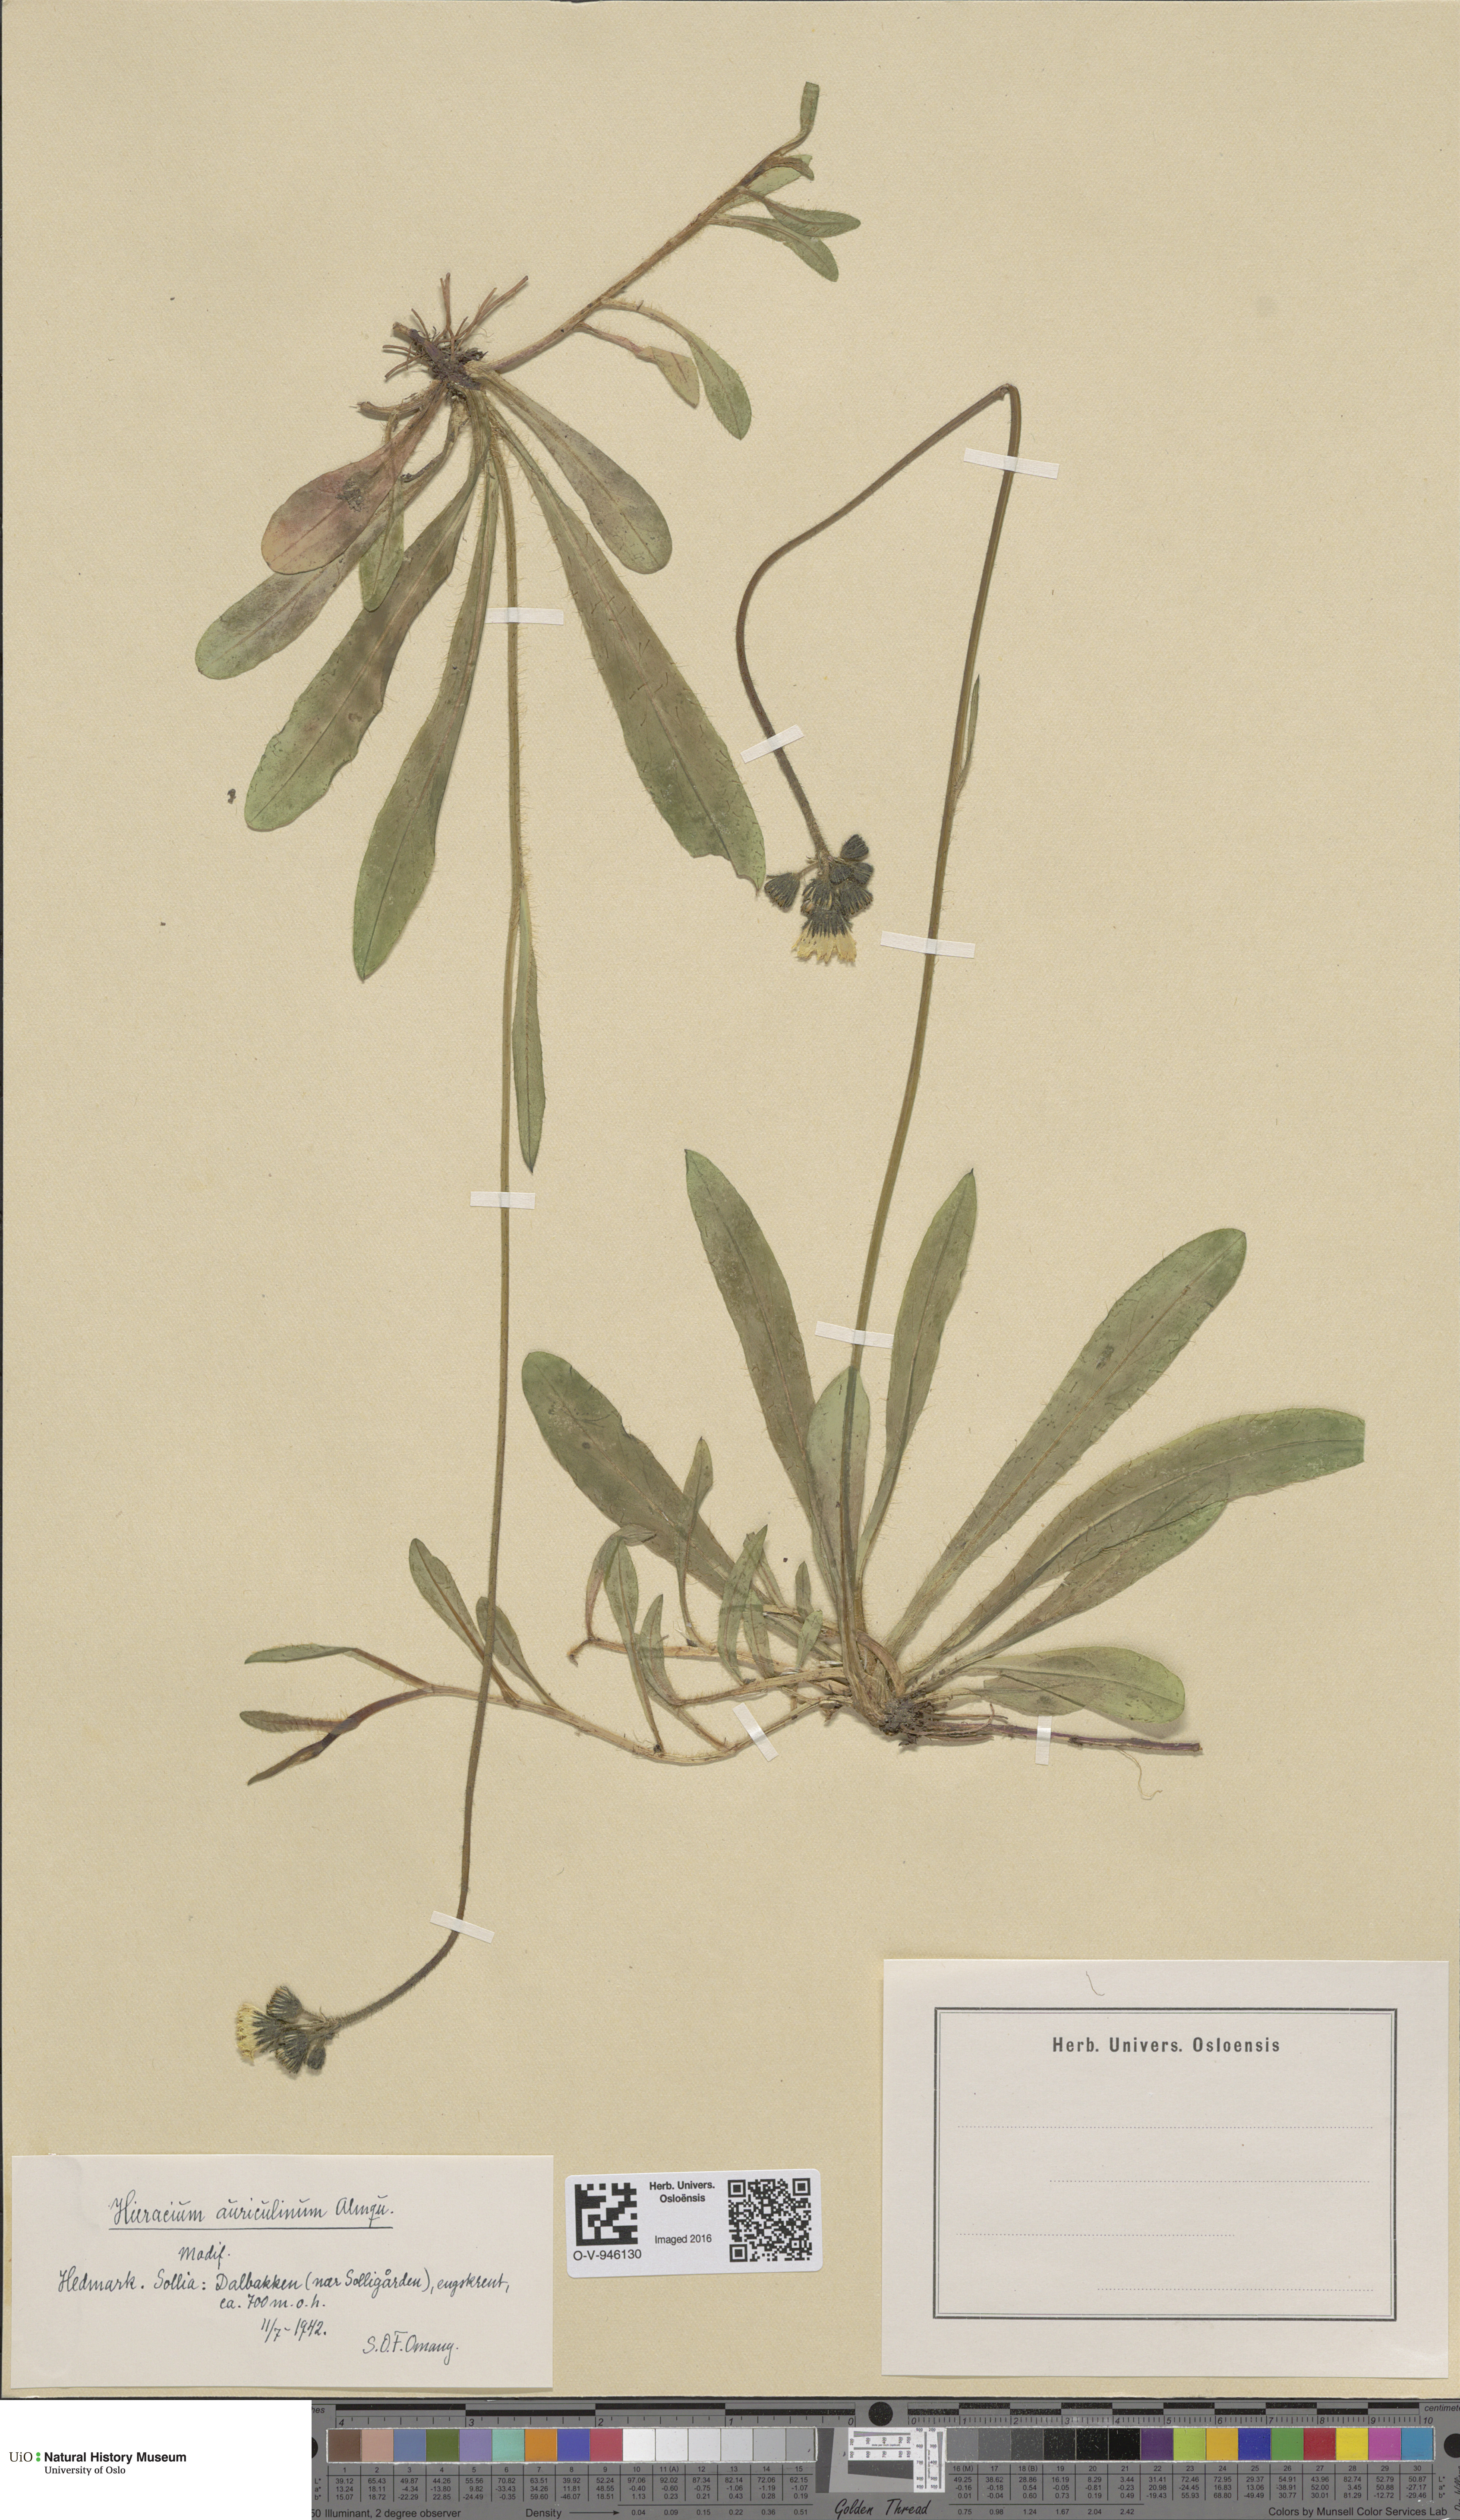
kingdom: Plantae
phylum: Tracheophyta
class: Magnoliopsida
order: Asterales
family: Asteraceae
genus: Pilosella
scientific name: Pilosella dubia
